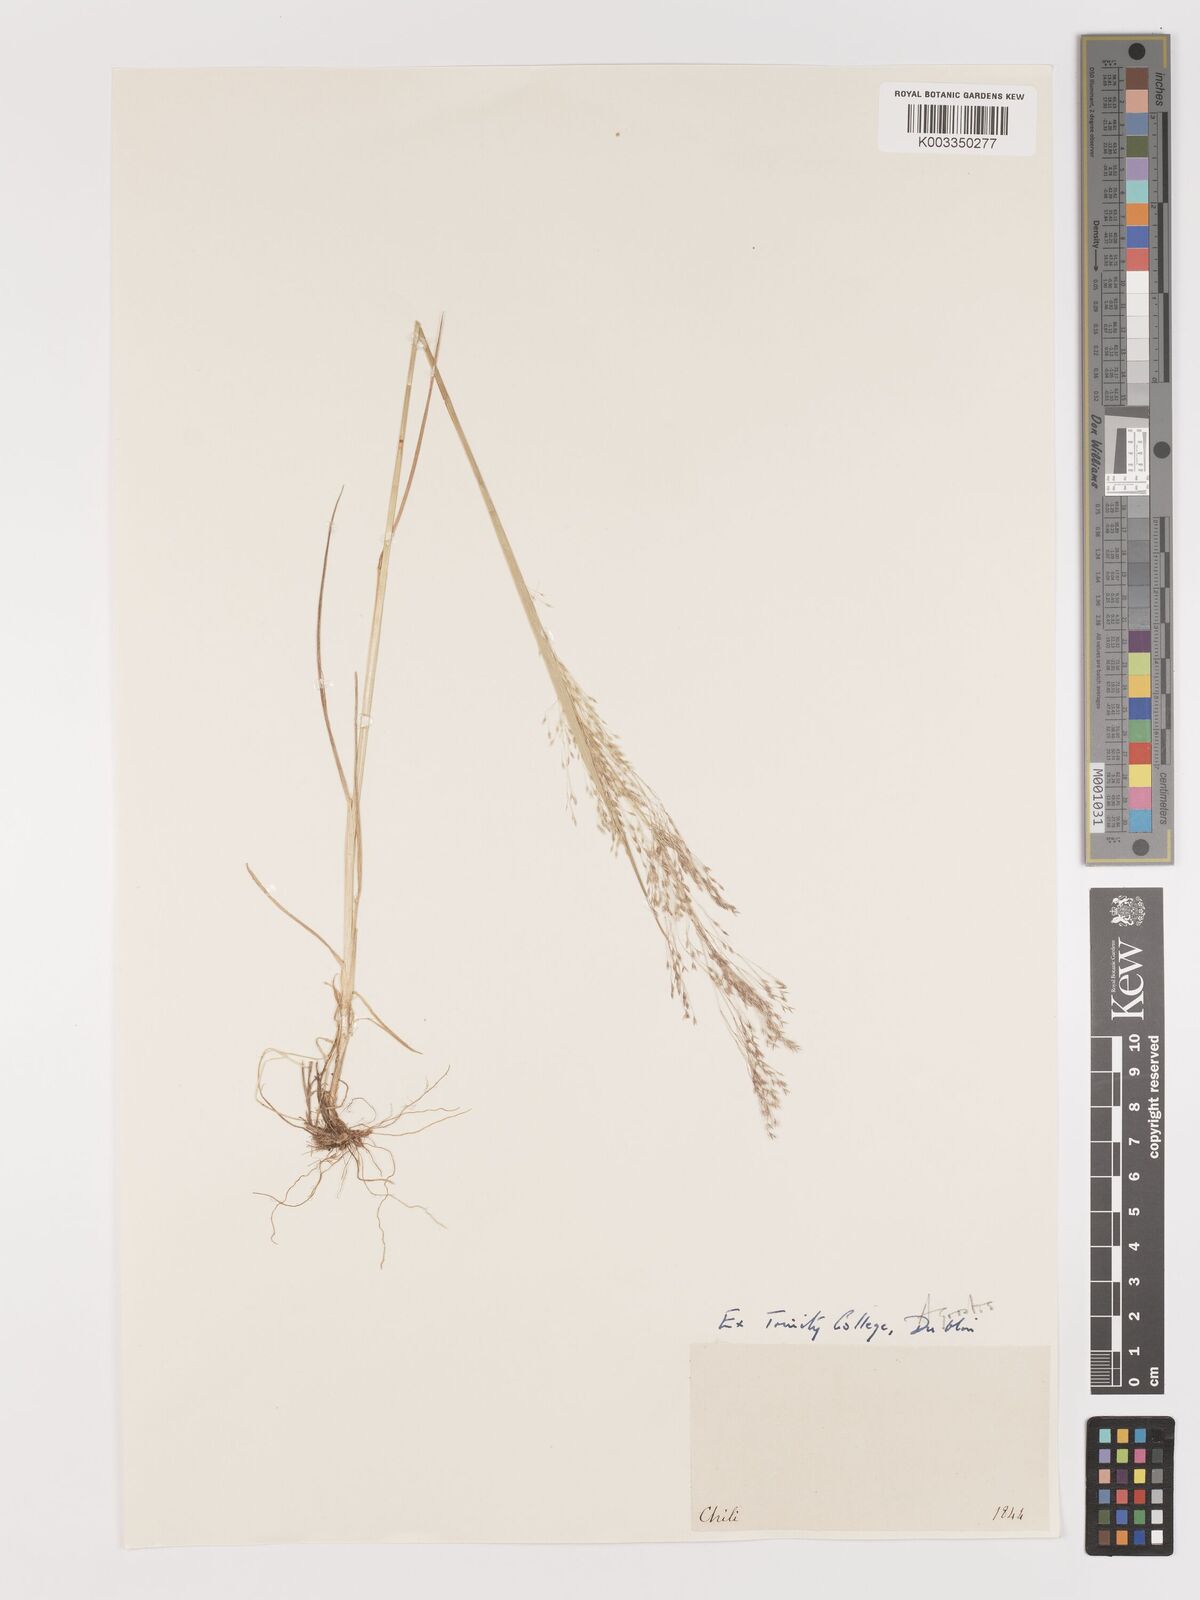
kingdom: Plantae
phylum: Tracheophyta
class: Liliopsida
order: Poales
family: Poaceae
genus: Agrostis
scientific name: Agrostis leptotricha
